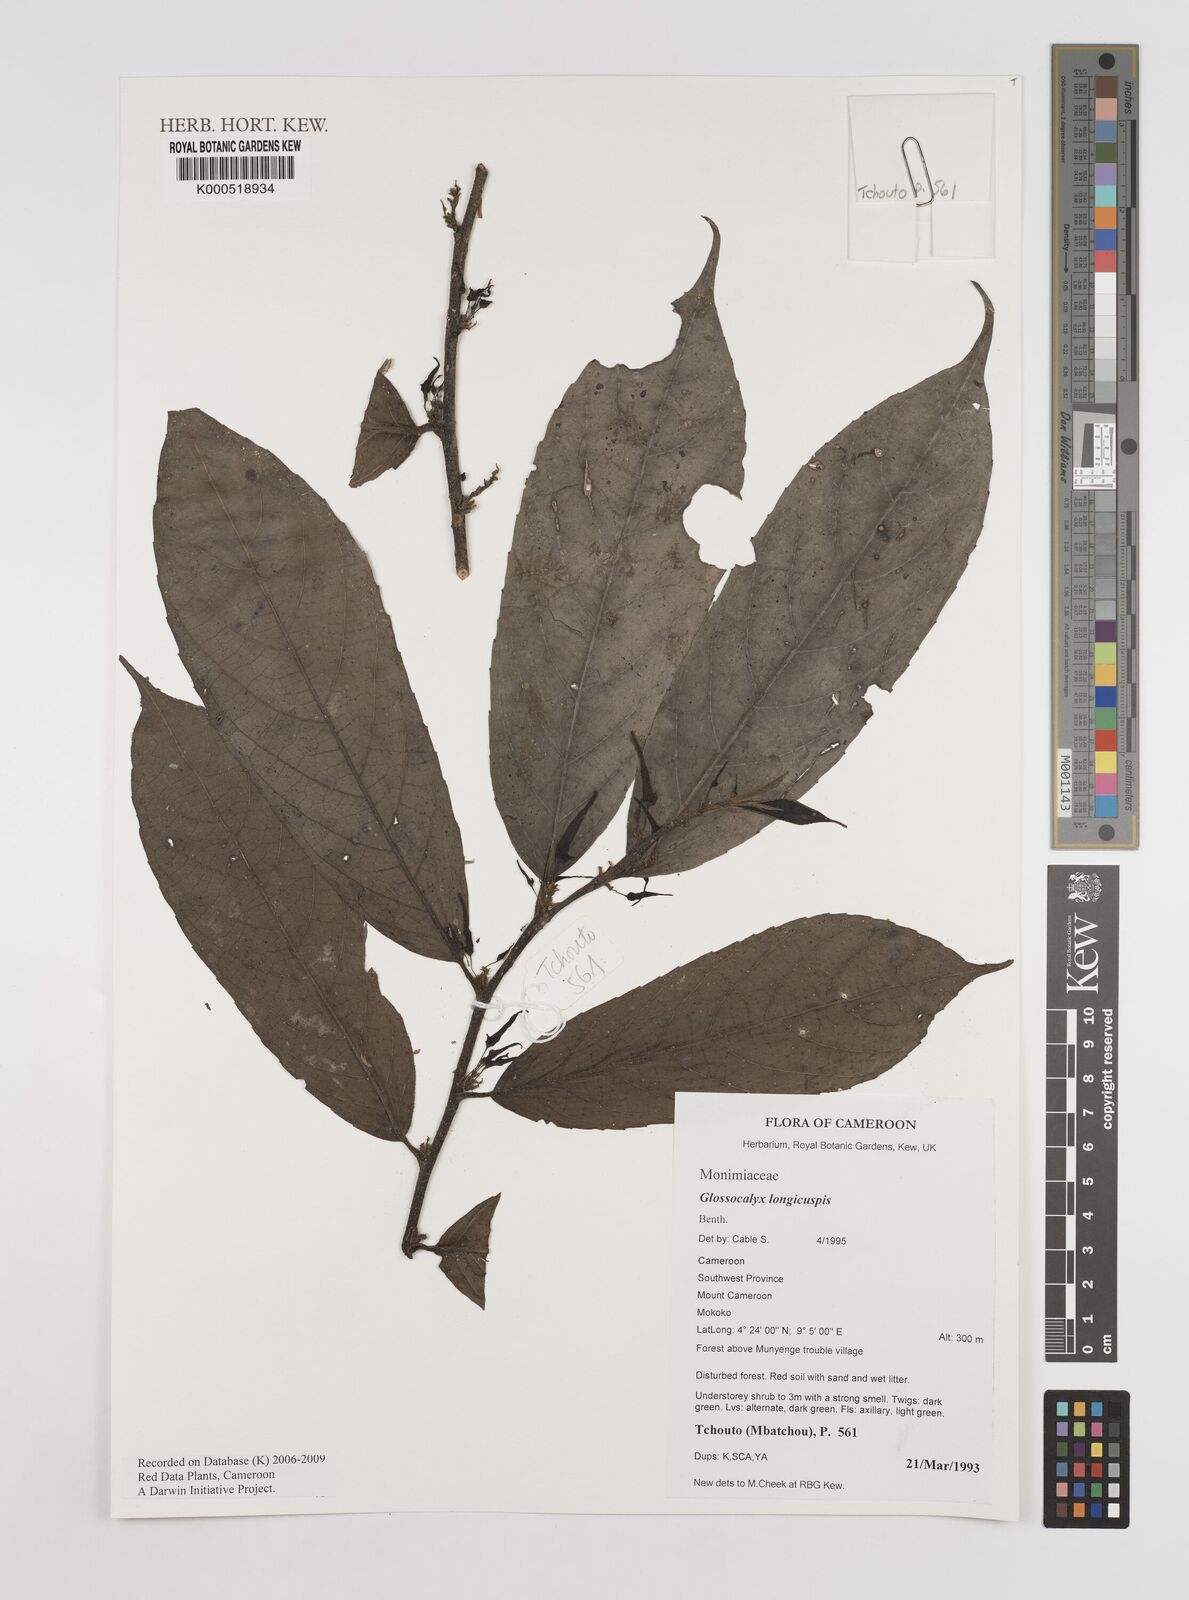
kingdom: Plantae
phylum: Tracheophyta
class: Magnoliopsida
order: Laurales
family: Siparunaceae
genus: Glossocalyx
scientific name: Glossocalyx longicuspis
